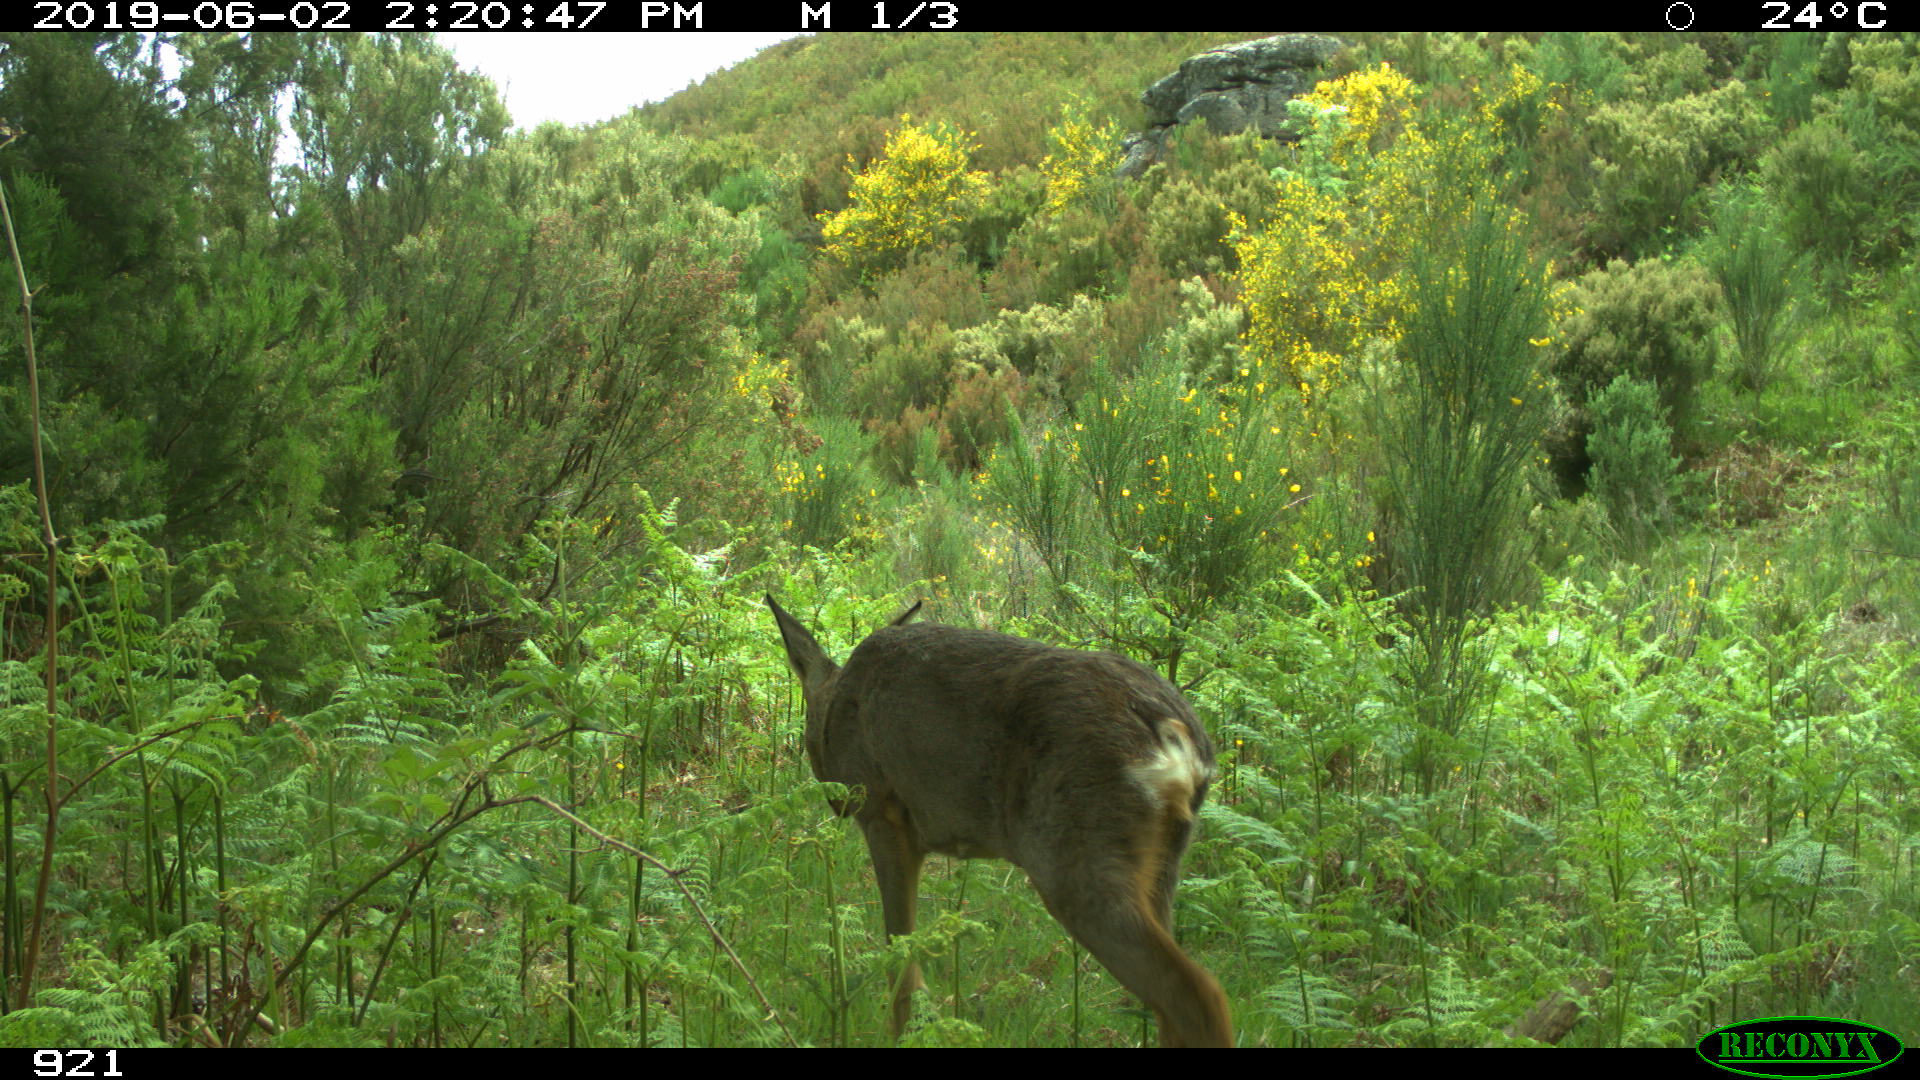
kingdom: Animalia
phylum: Chordata
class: Mammalia
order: Artiodactyla
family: Cervidae
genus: Capreolus
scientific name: Capreolus capreolus
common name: Western roe deer
